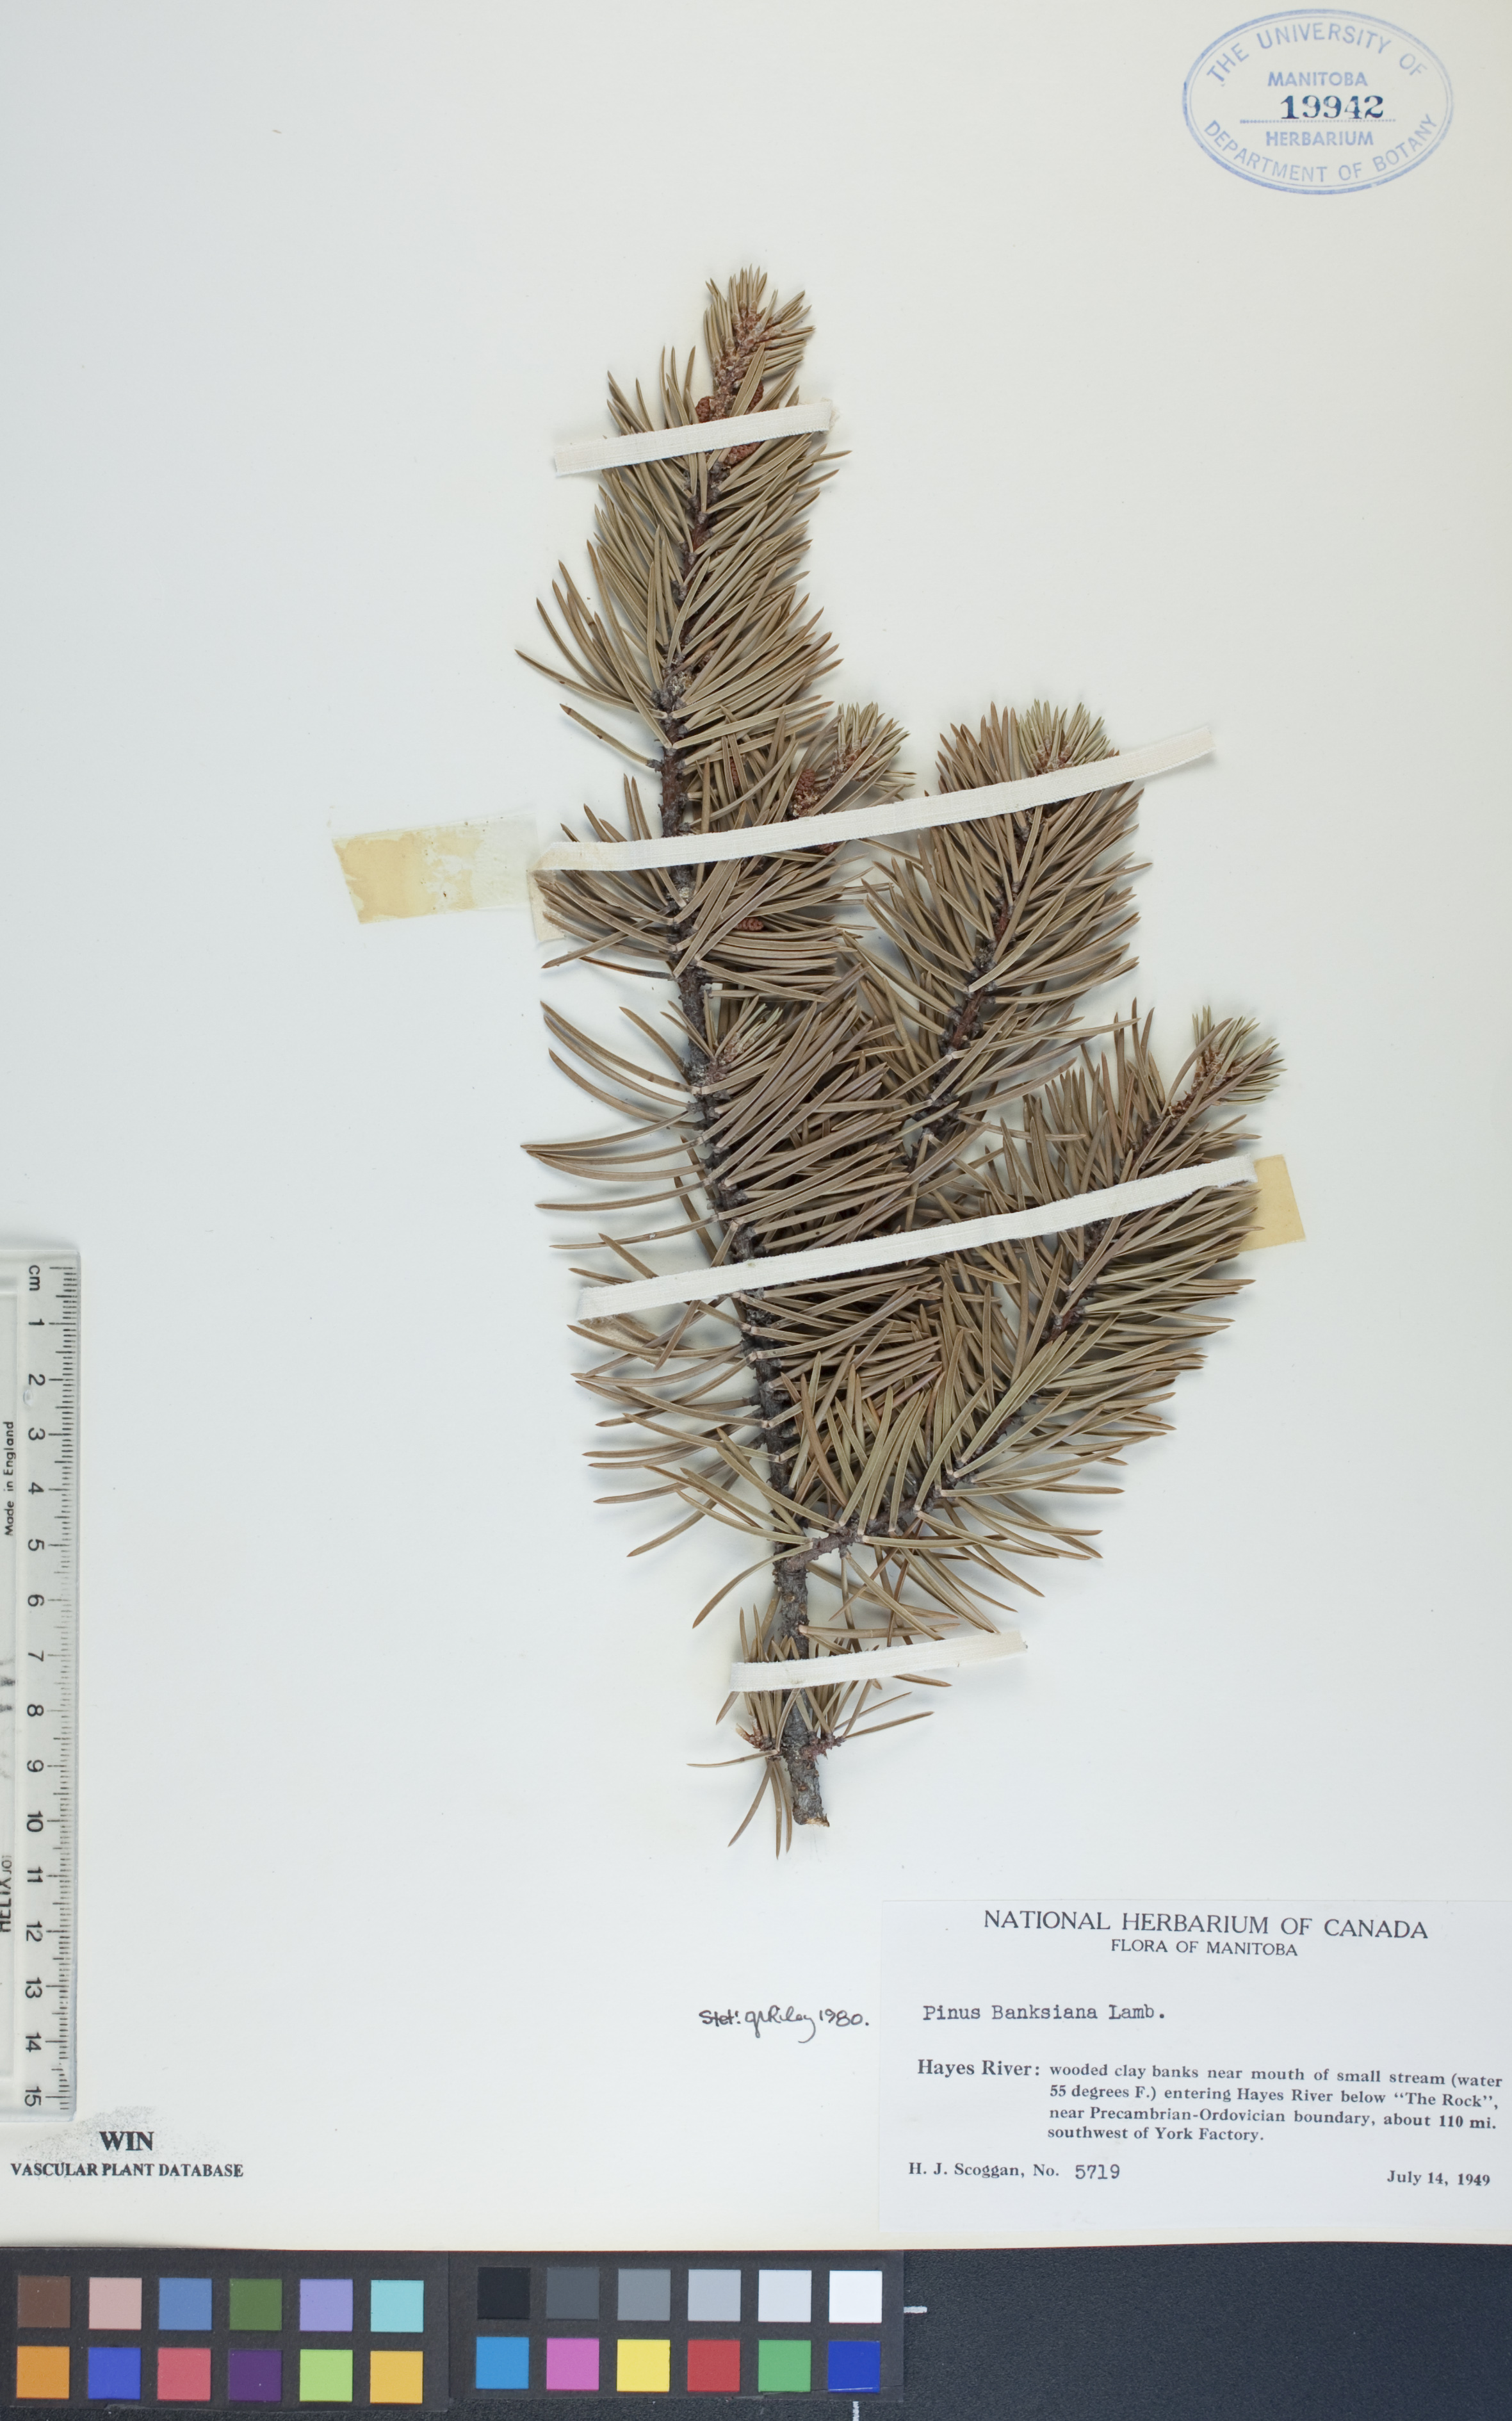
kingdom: Plantae
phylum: Tracheophyta
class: Pinopsida
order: Pinales
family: Pinaceae
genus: Pinus
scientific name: Pinus banksiana
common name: Jack pine
